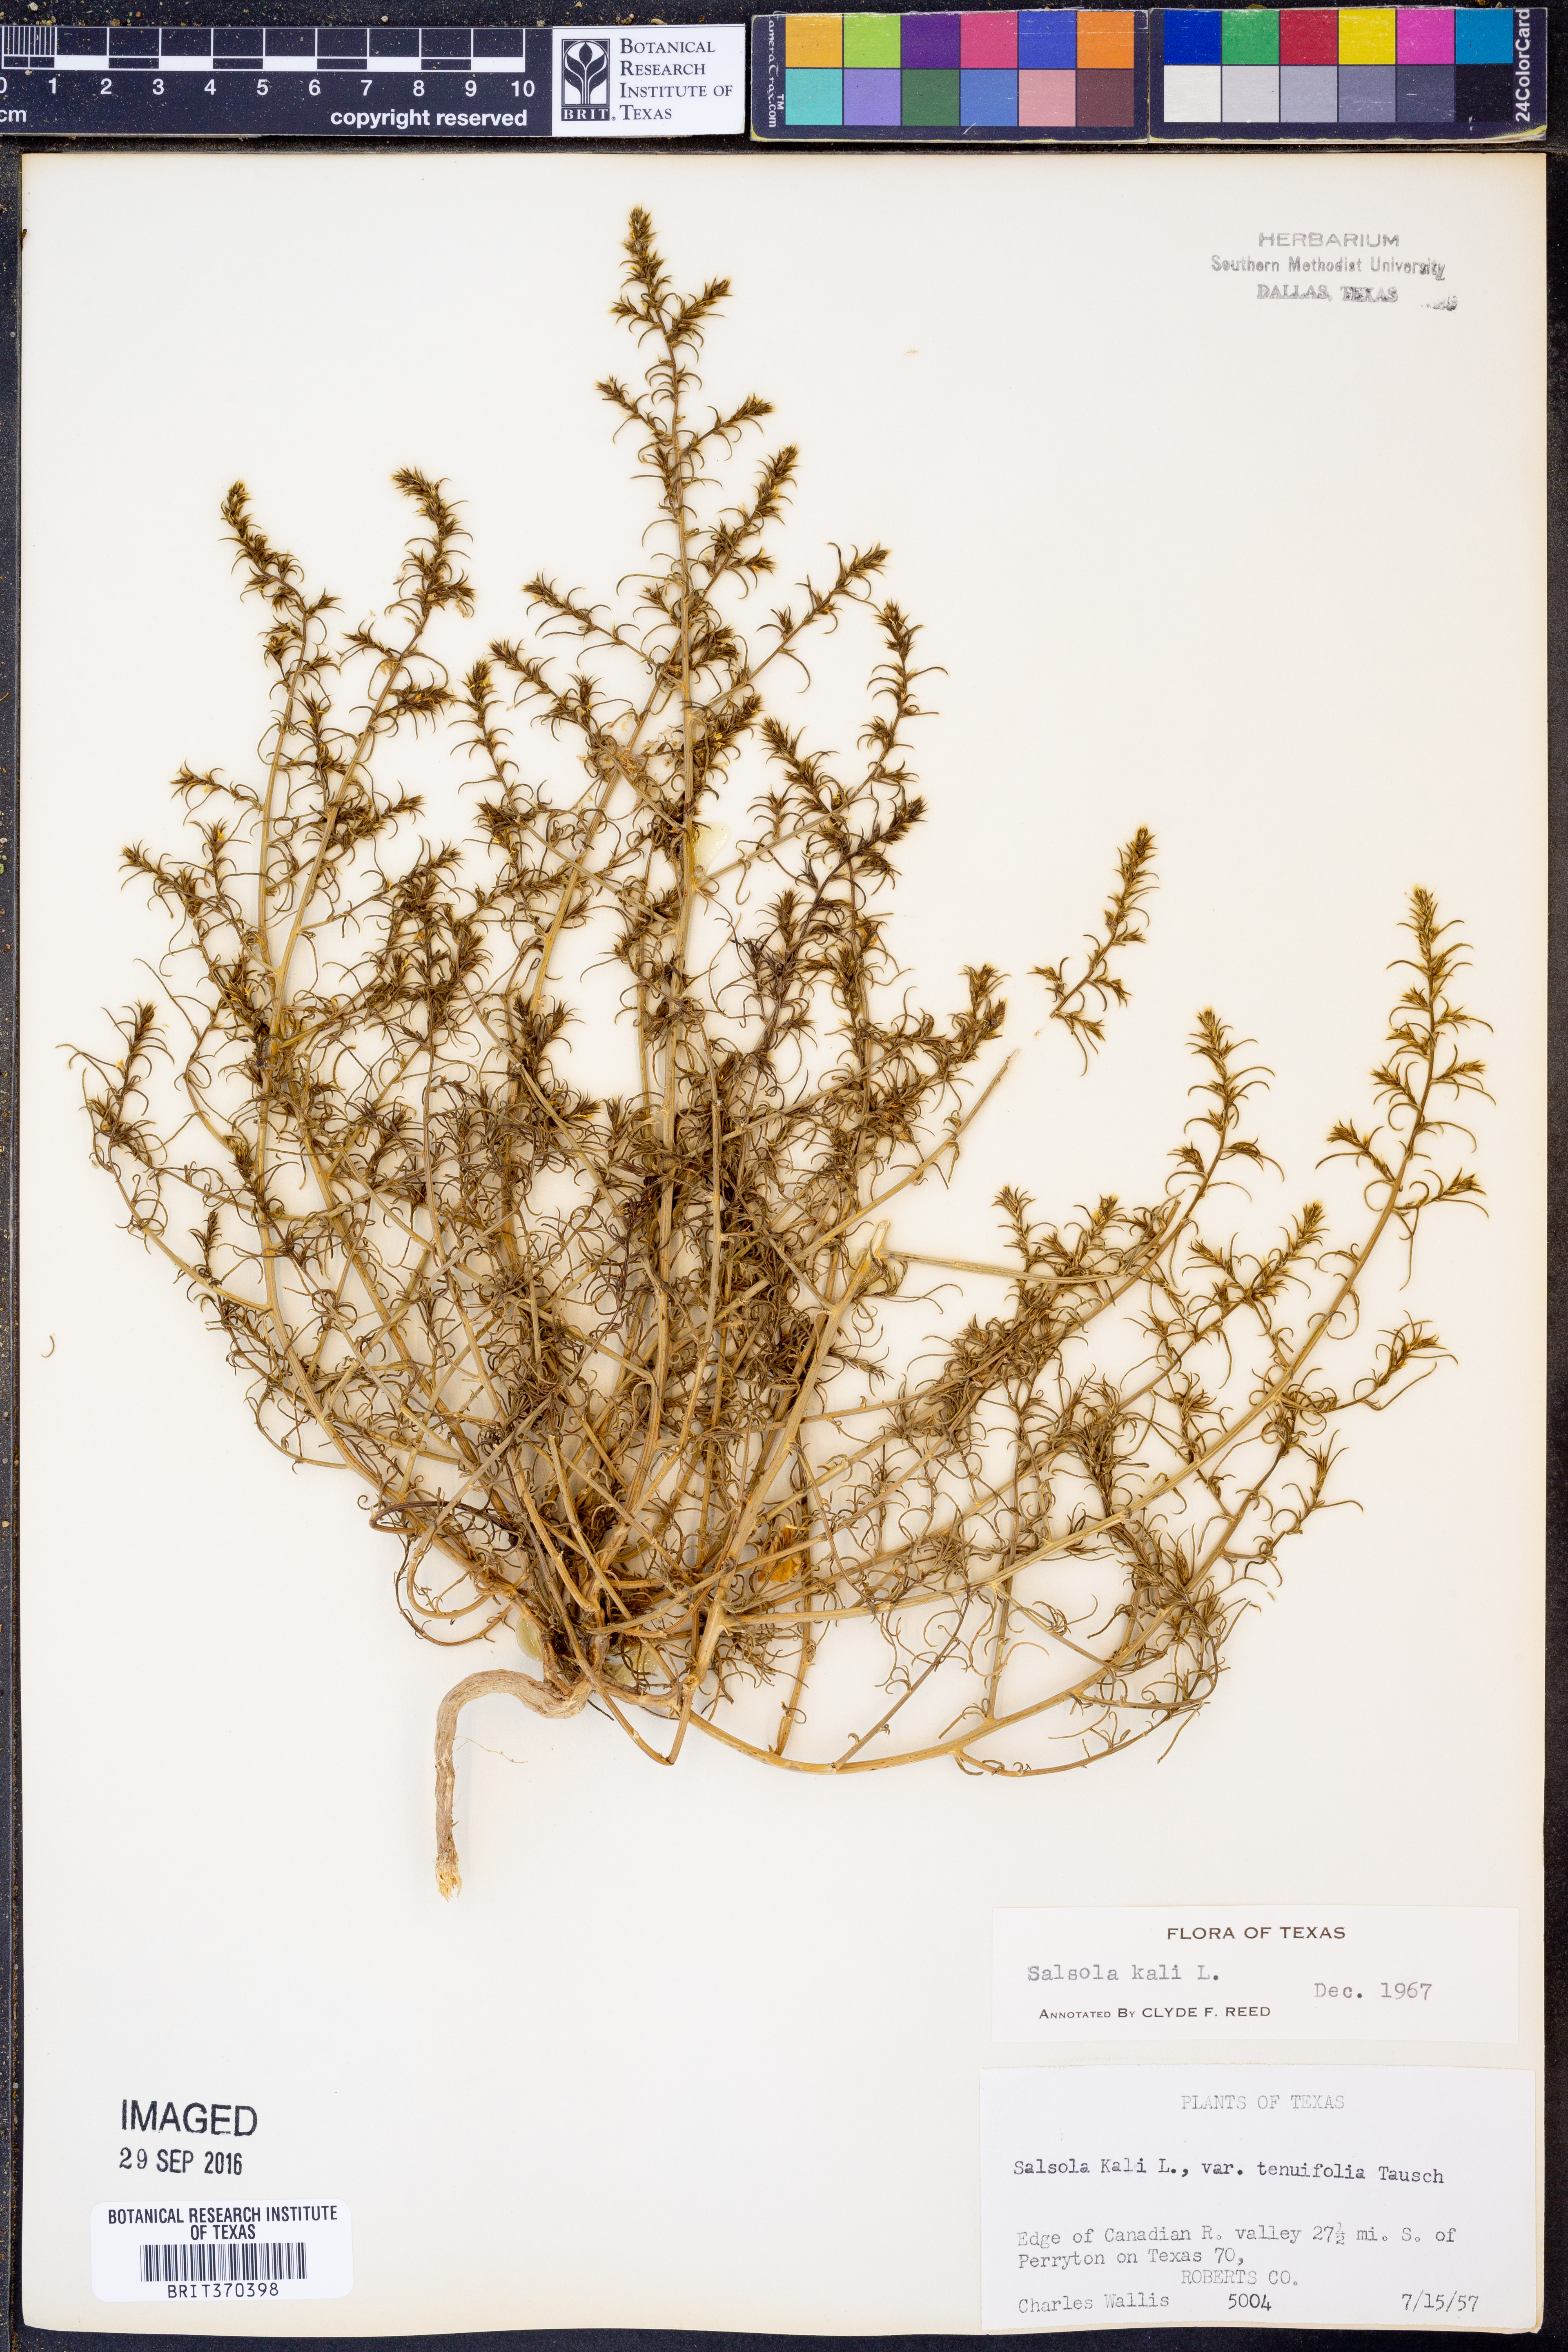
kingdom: Plantae
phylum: Tracheophyta
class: Magnoliopsida
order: Caryophyllales
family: Amaranthaceae
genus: Salsola
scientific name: Salsola tragus
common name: Prickly russian thistle
